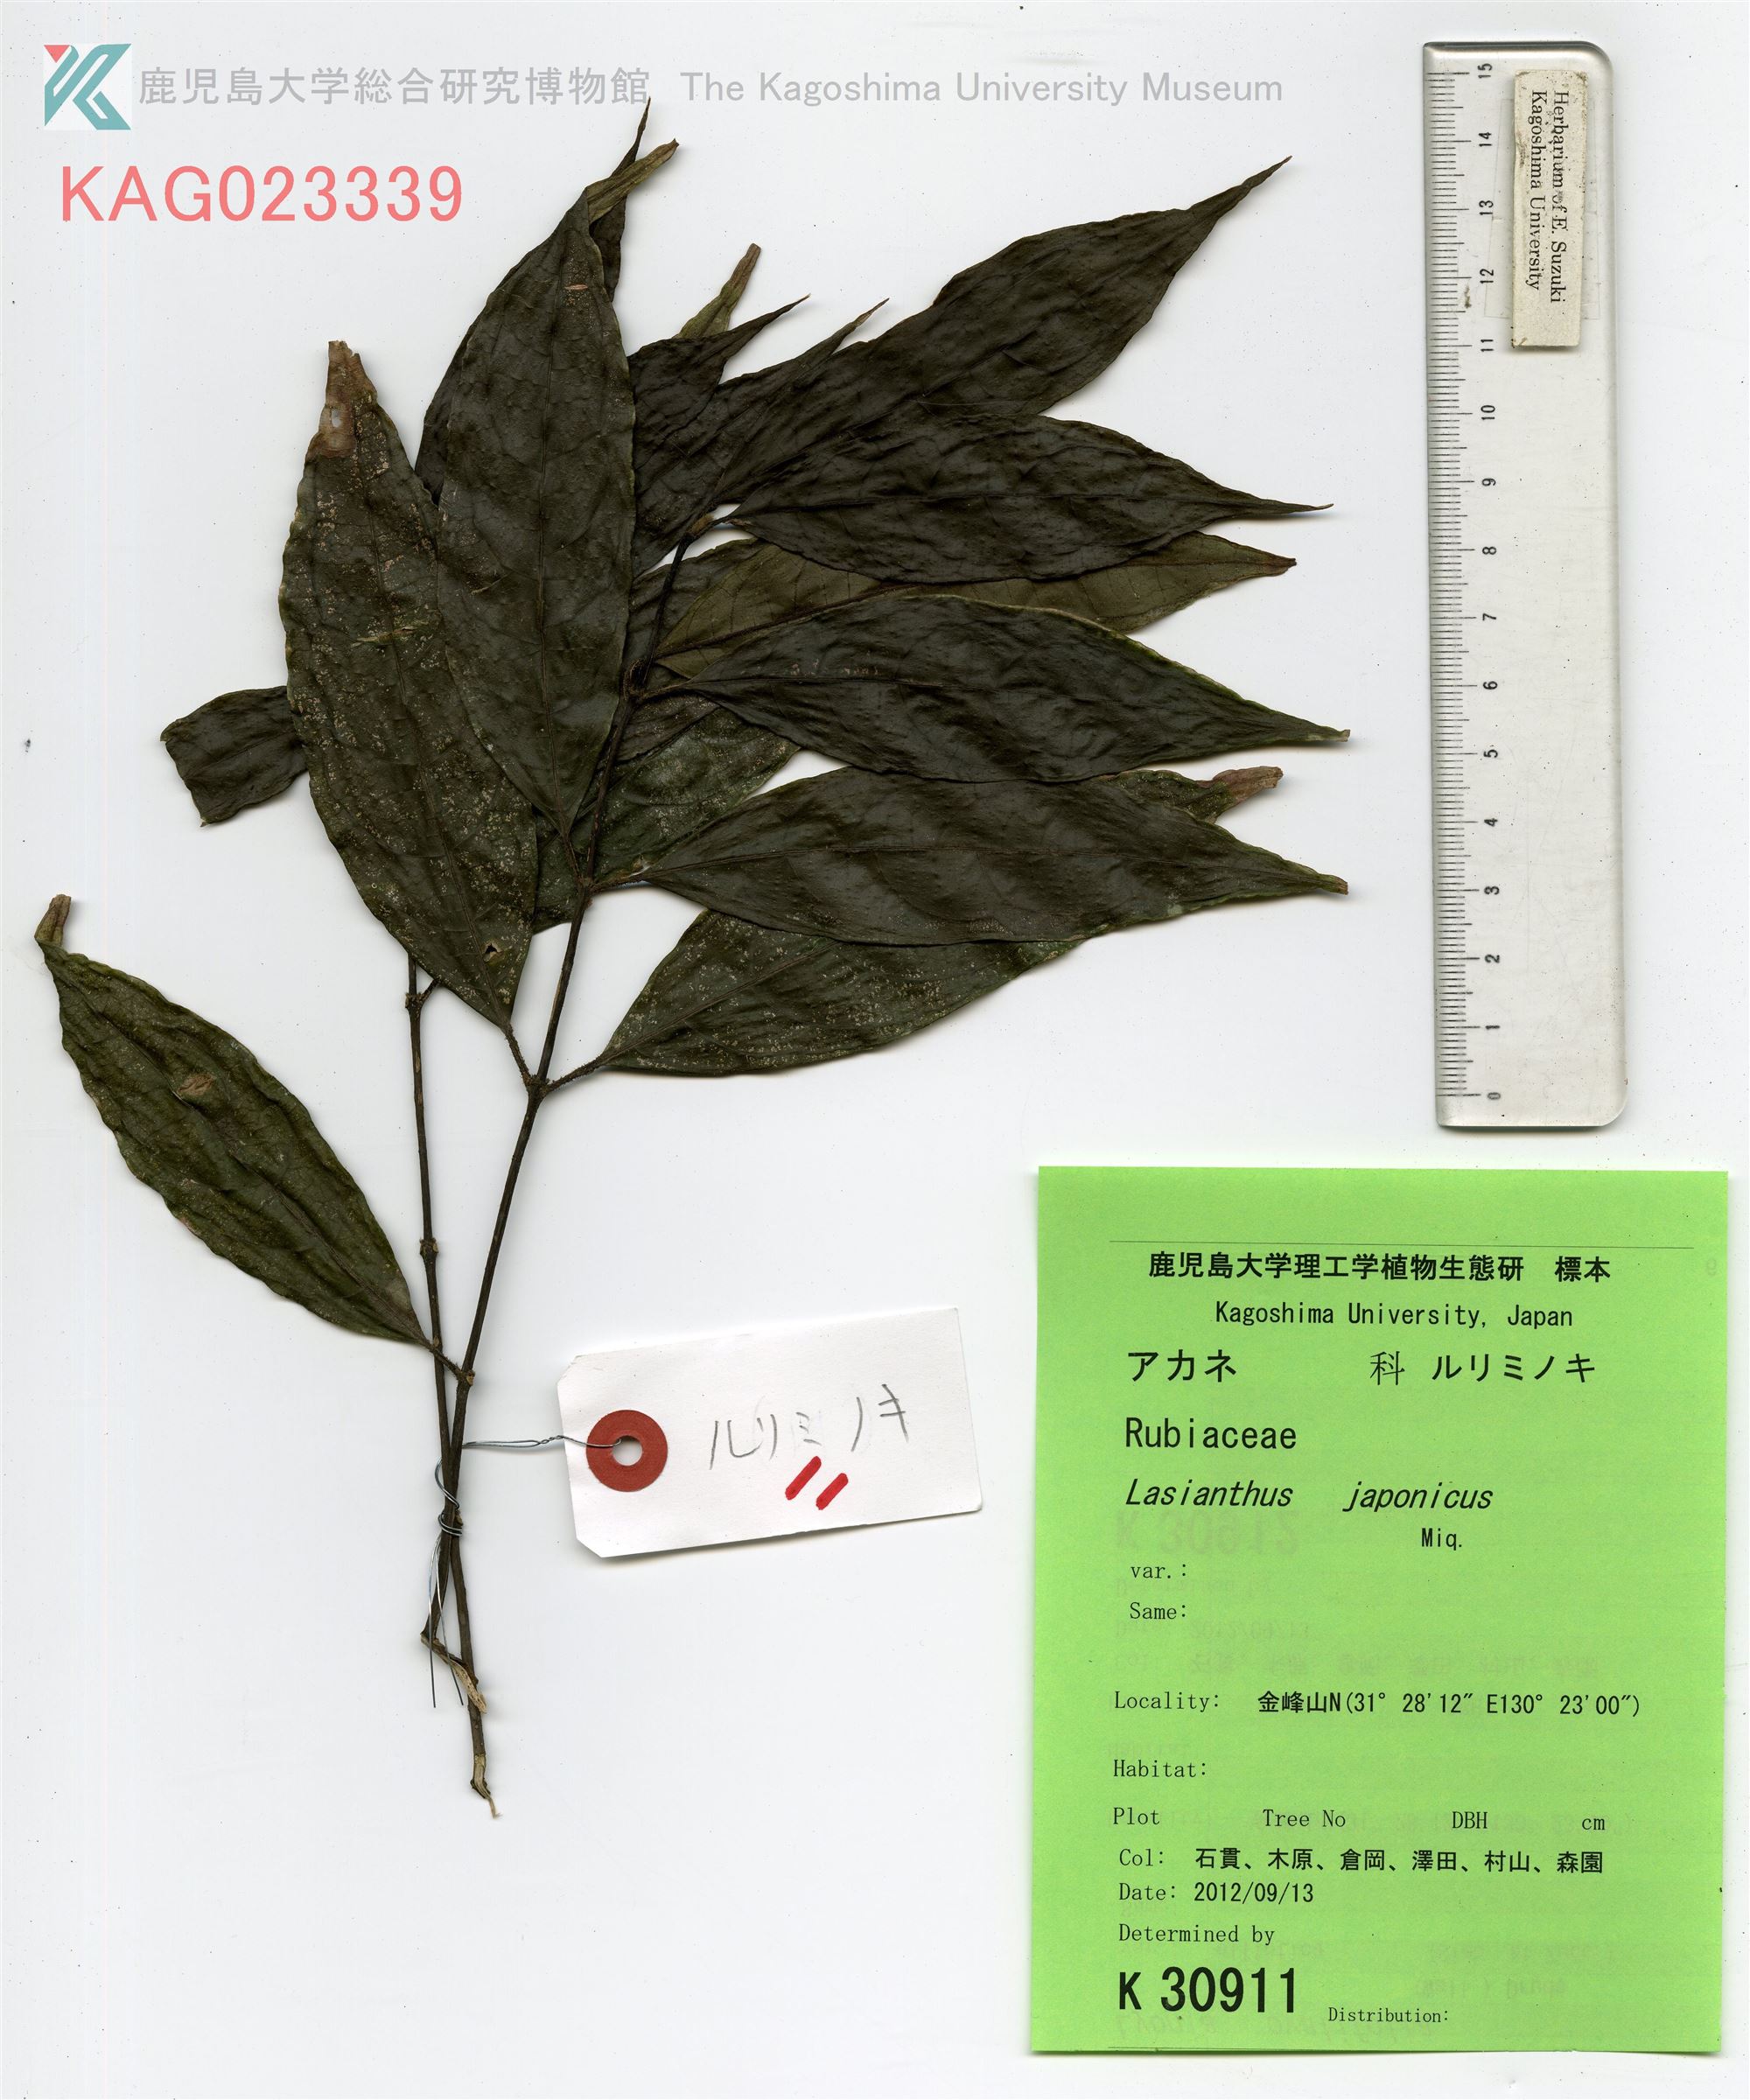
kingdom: Plantae
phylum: Tracheophyta
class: Magnoliopsida
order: Gentianales
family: Rubiaceae
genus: Lasianthus
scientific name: Lasianthus japonicus
